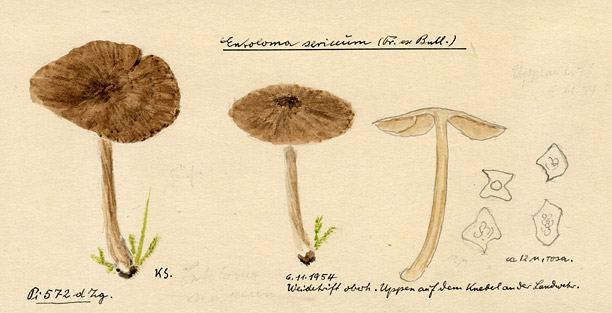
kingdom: Fungi
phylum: Basidiomycota
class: Agaricomycetes
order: Agaricales
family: Entolomataceae
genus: Entoloma
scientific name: Entoloma sericeum
